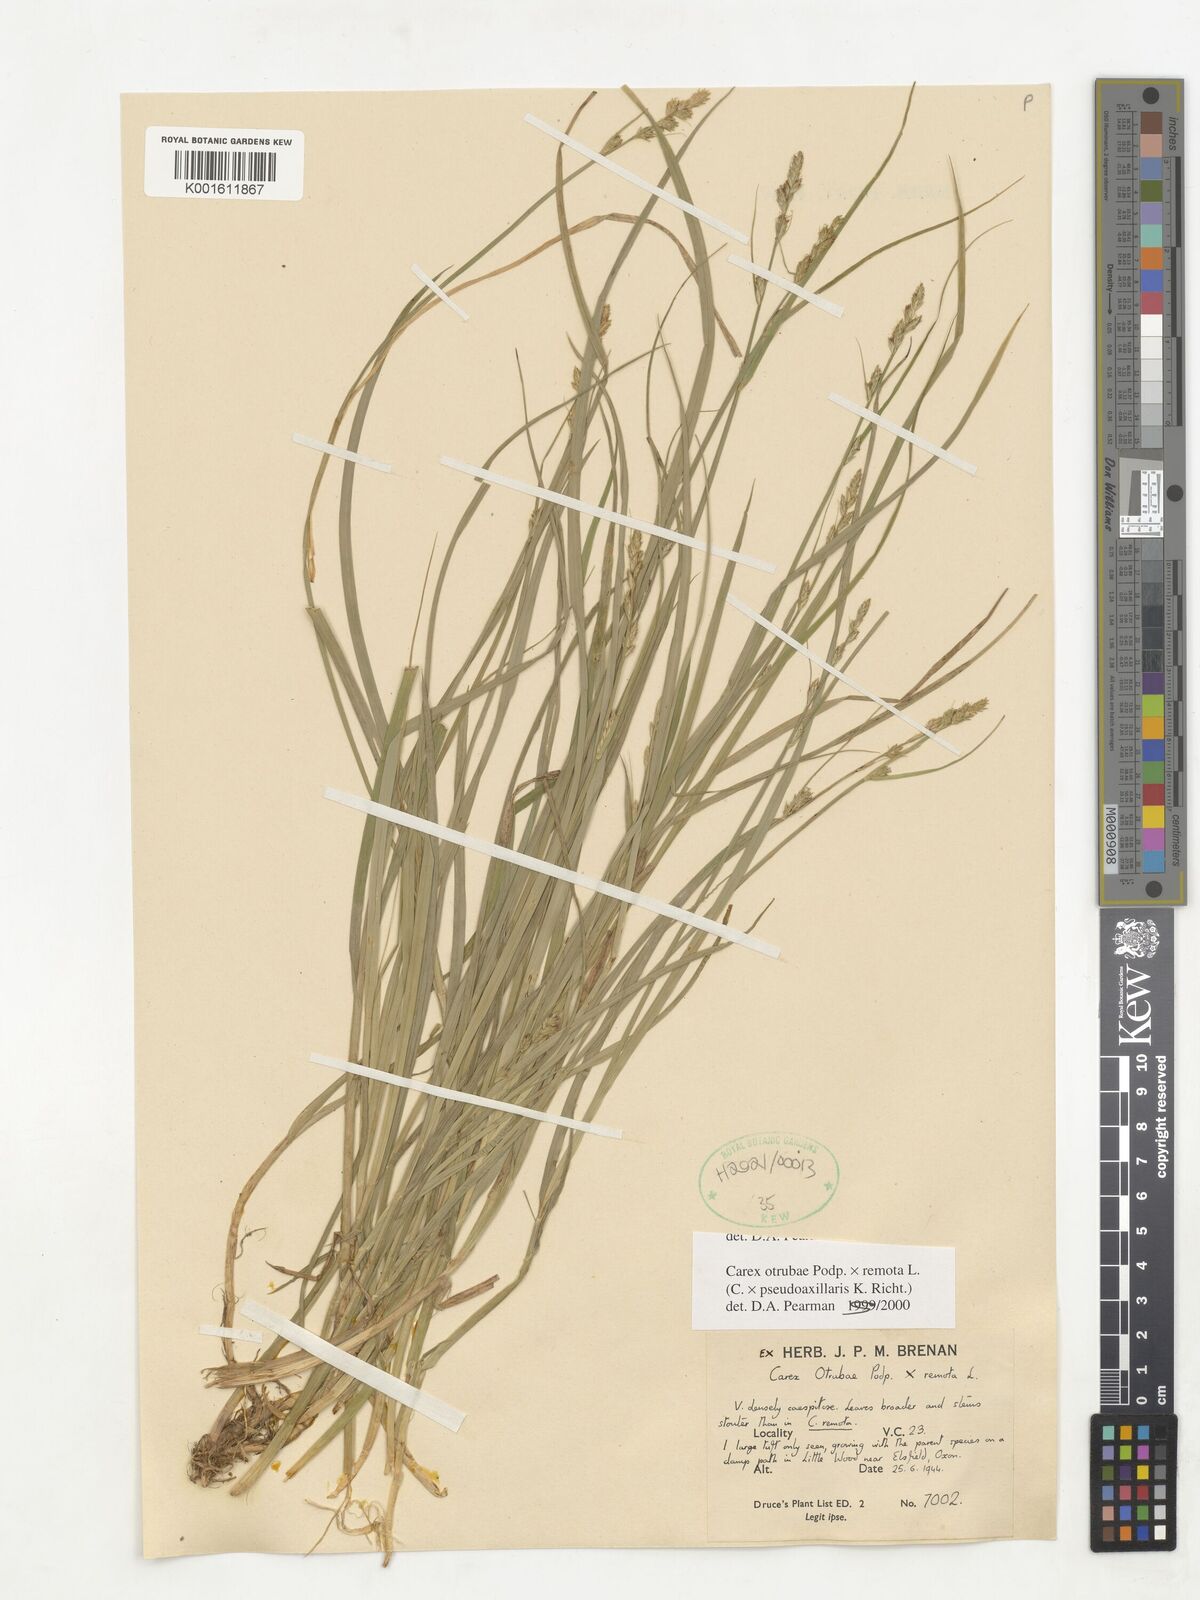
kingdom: Plantae
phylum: Tracheophyta
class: Liliopsida
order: Poales
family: Cyperaceae
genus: Carex
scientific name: Carex pseudoaxillaris
